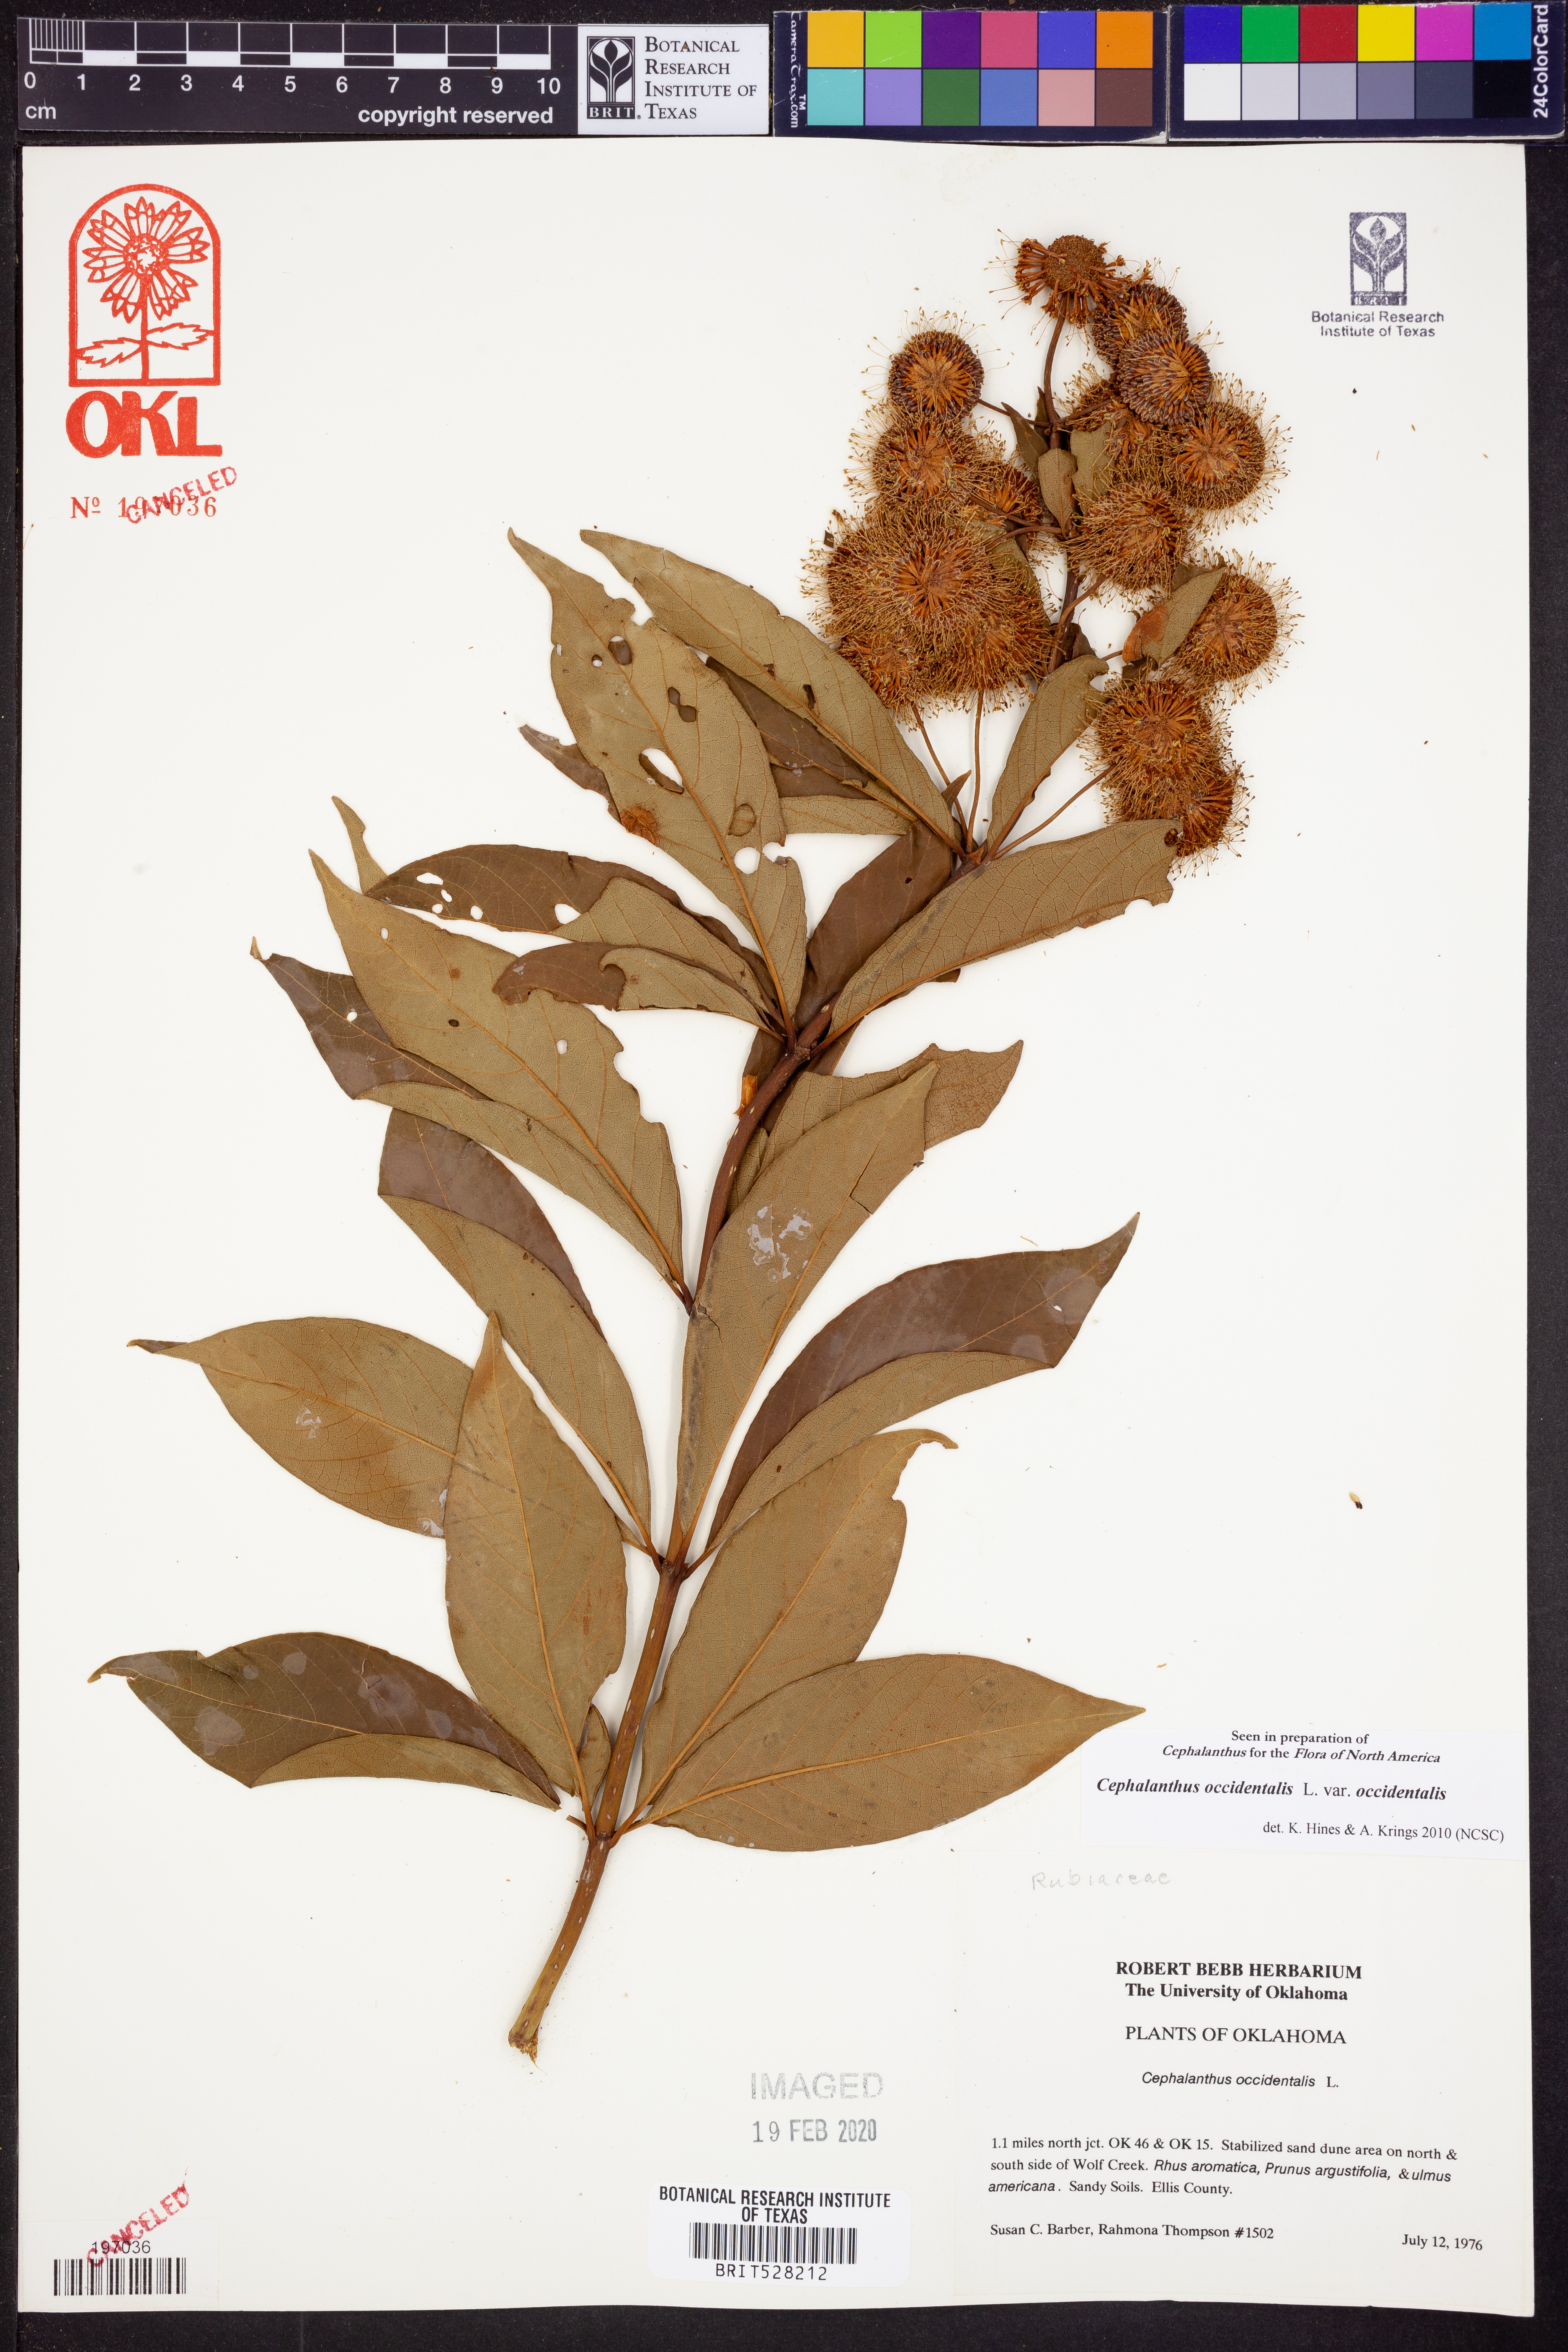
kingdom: Plantae
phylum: Tracheophyta
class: Magnoliopsida
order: Gentianales
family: Rubiaceae
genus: Cephalanthus
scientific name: Cephalanthus occidentalis
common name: Button-willow
